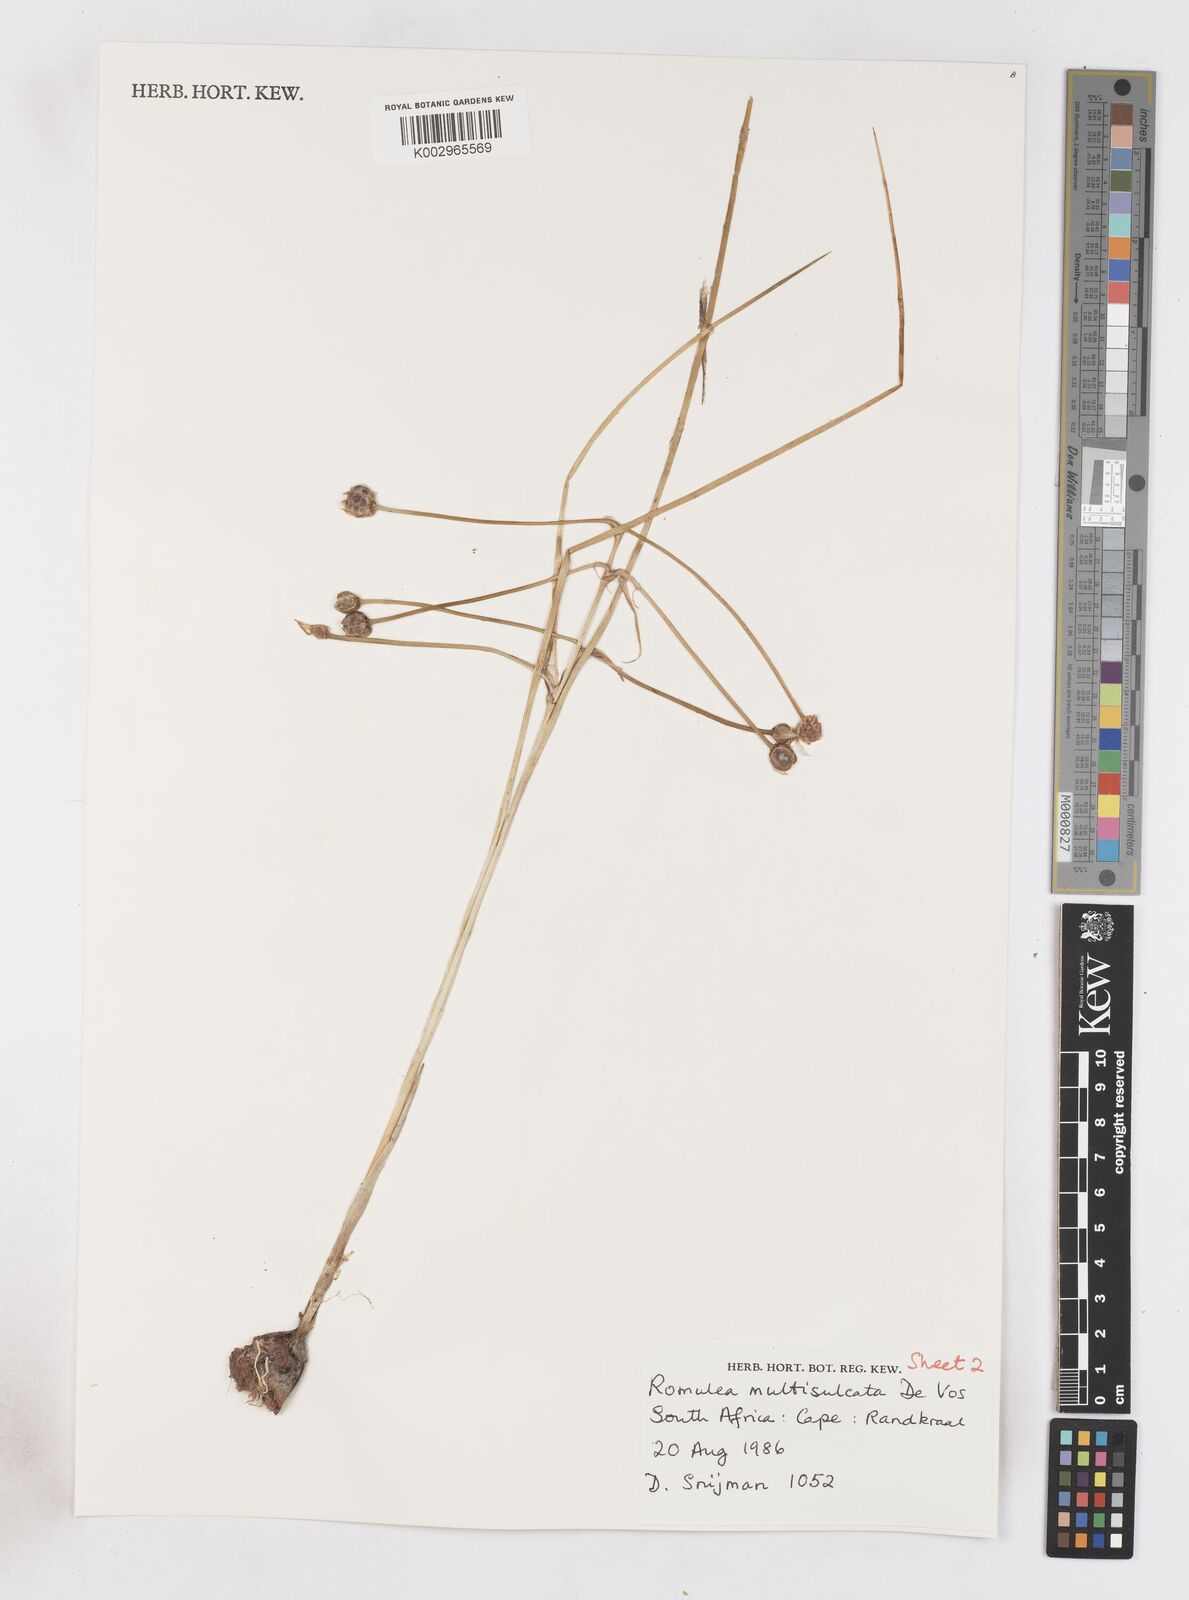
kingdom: Plantae
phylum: Tracheophyta
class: Liliopsida
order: Asparagales
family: Iridaceae
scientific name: Iridaceae
